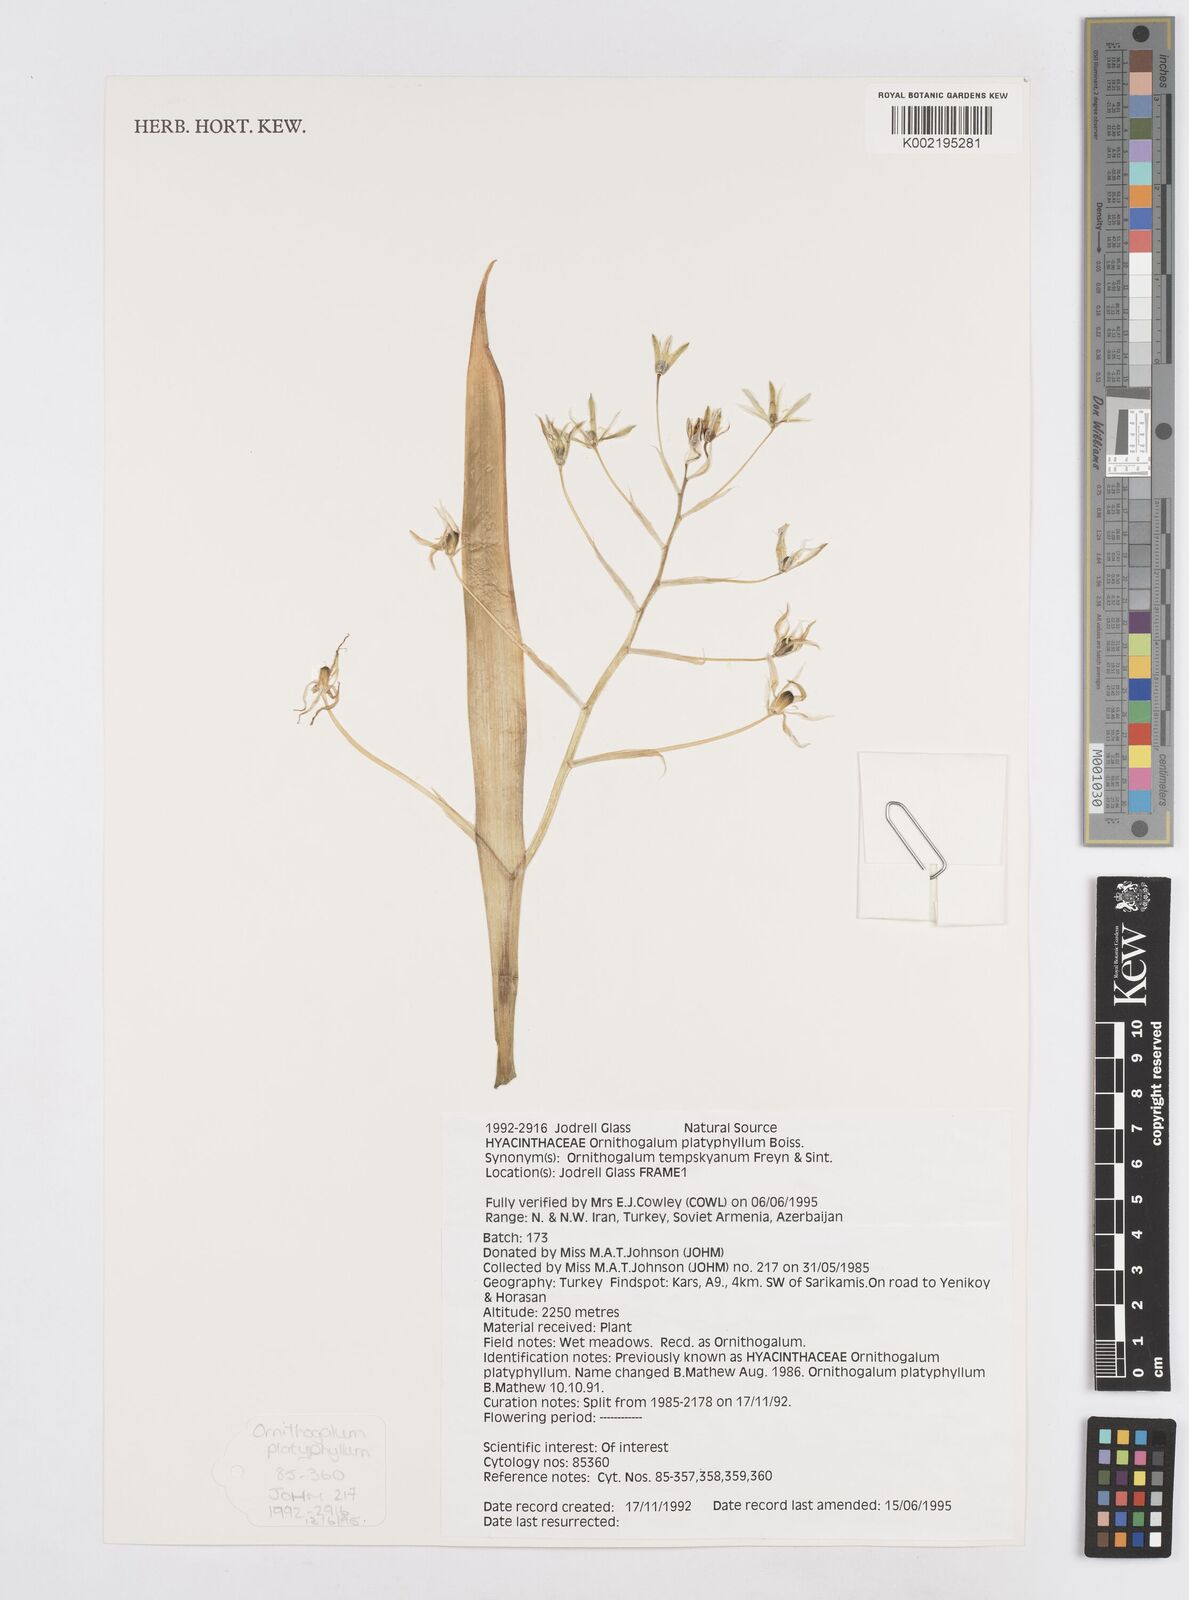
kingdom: Plantae
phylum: Tracheophyta
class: Liliopsida
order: Asparagales
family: Asparagaceae
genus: Ornithogalum
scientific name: Ornithogalum montanum
